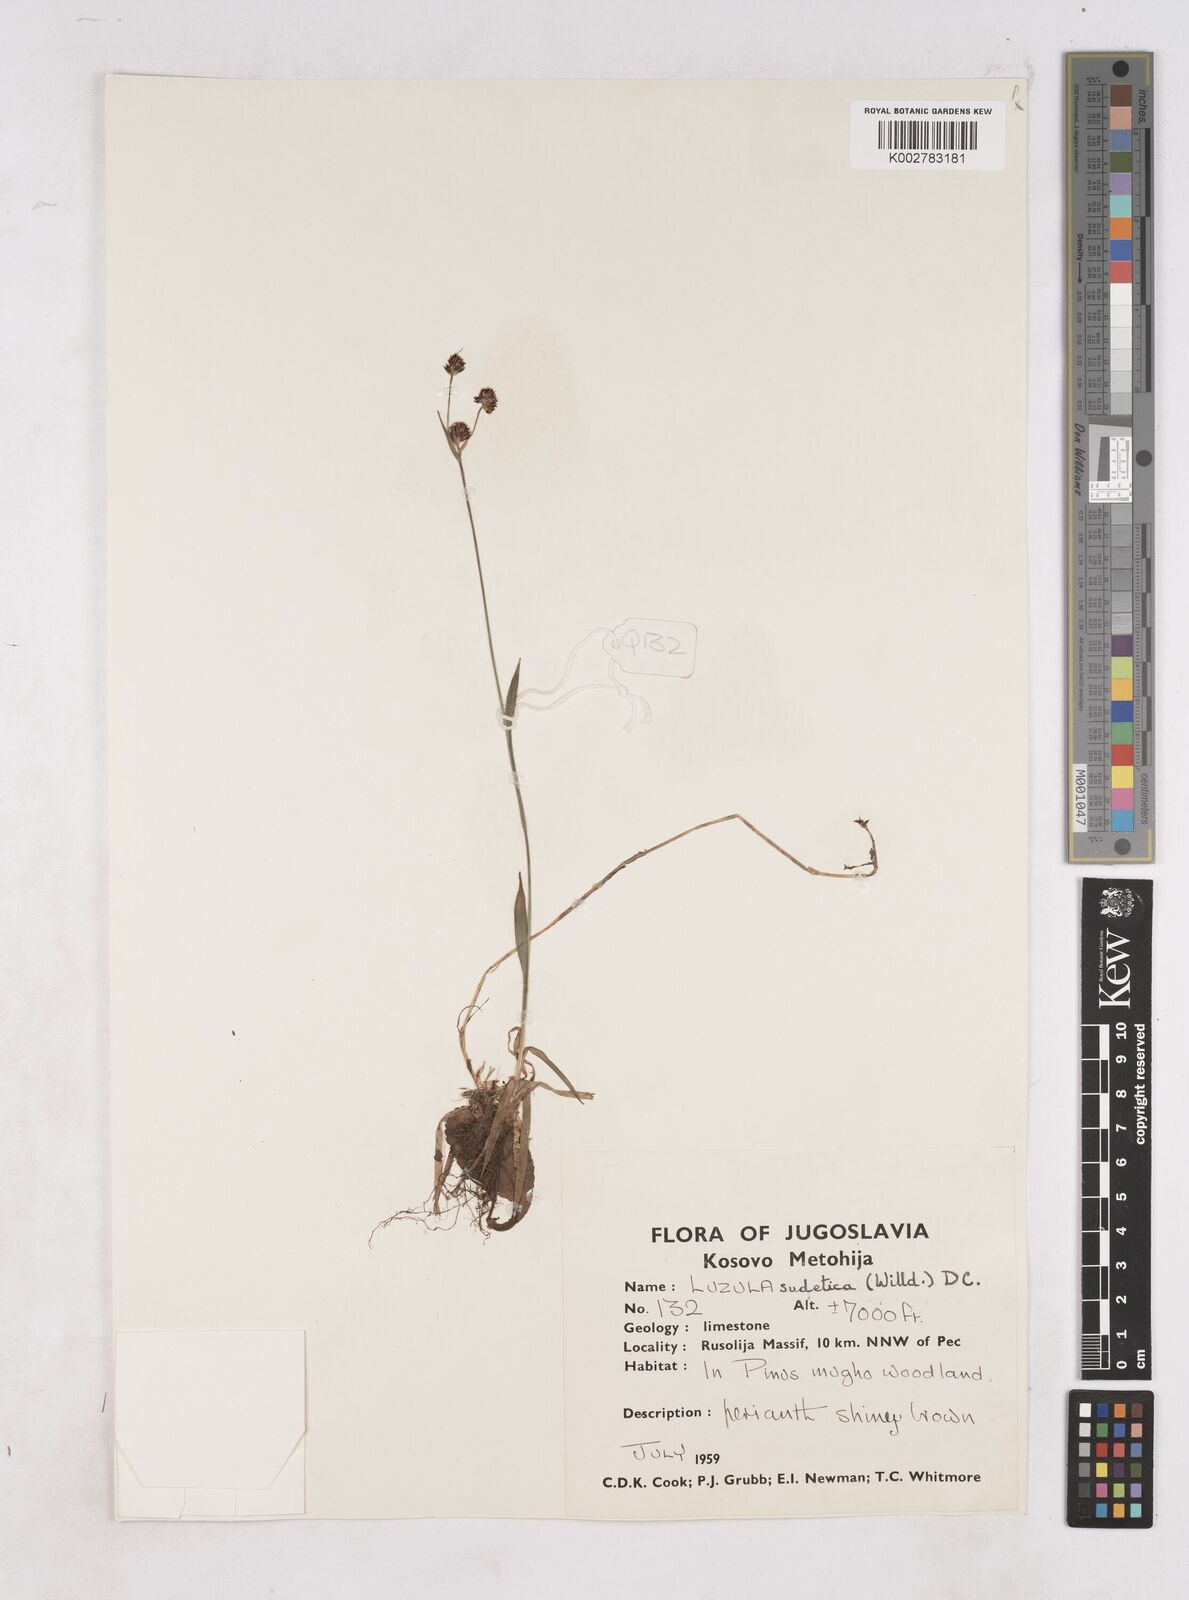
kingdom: Plantae
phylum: Tracheophyta
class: Liliopsida
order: Poales
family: Juncaceae
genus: Luzula
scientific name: Luzula sudetica
